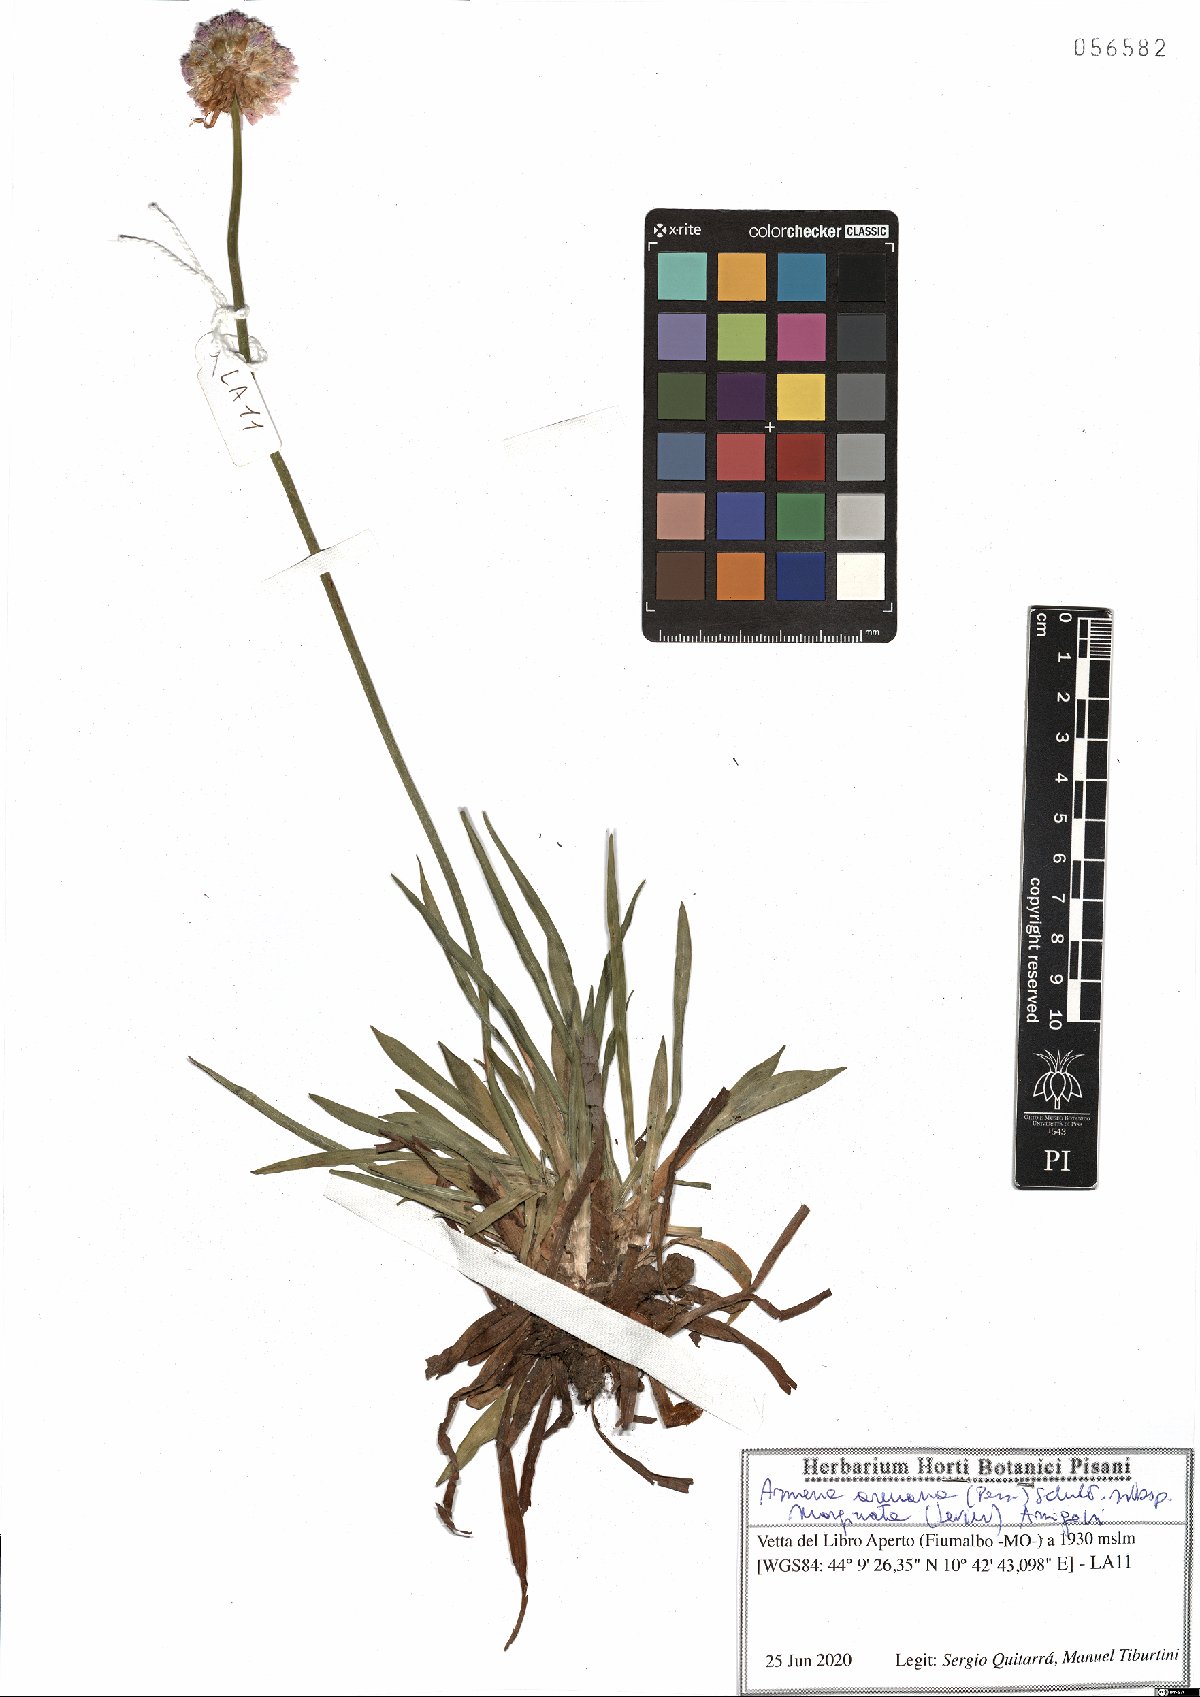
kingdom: Plantae
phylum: Tracheophyta
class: Magnoliopsida
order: Caryophyllales
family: Plumbaginaceae
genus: Armeria
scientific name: Armeria arenaria
